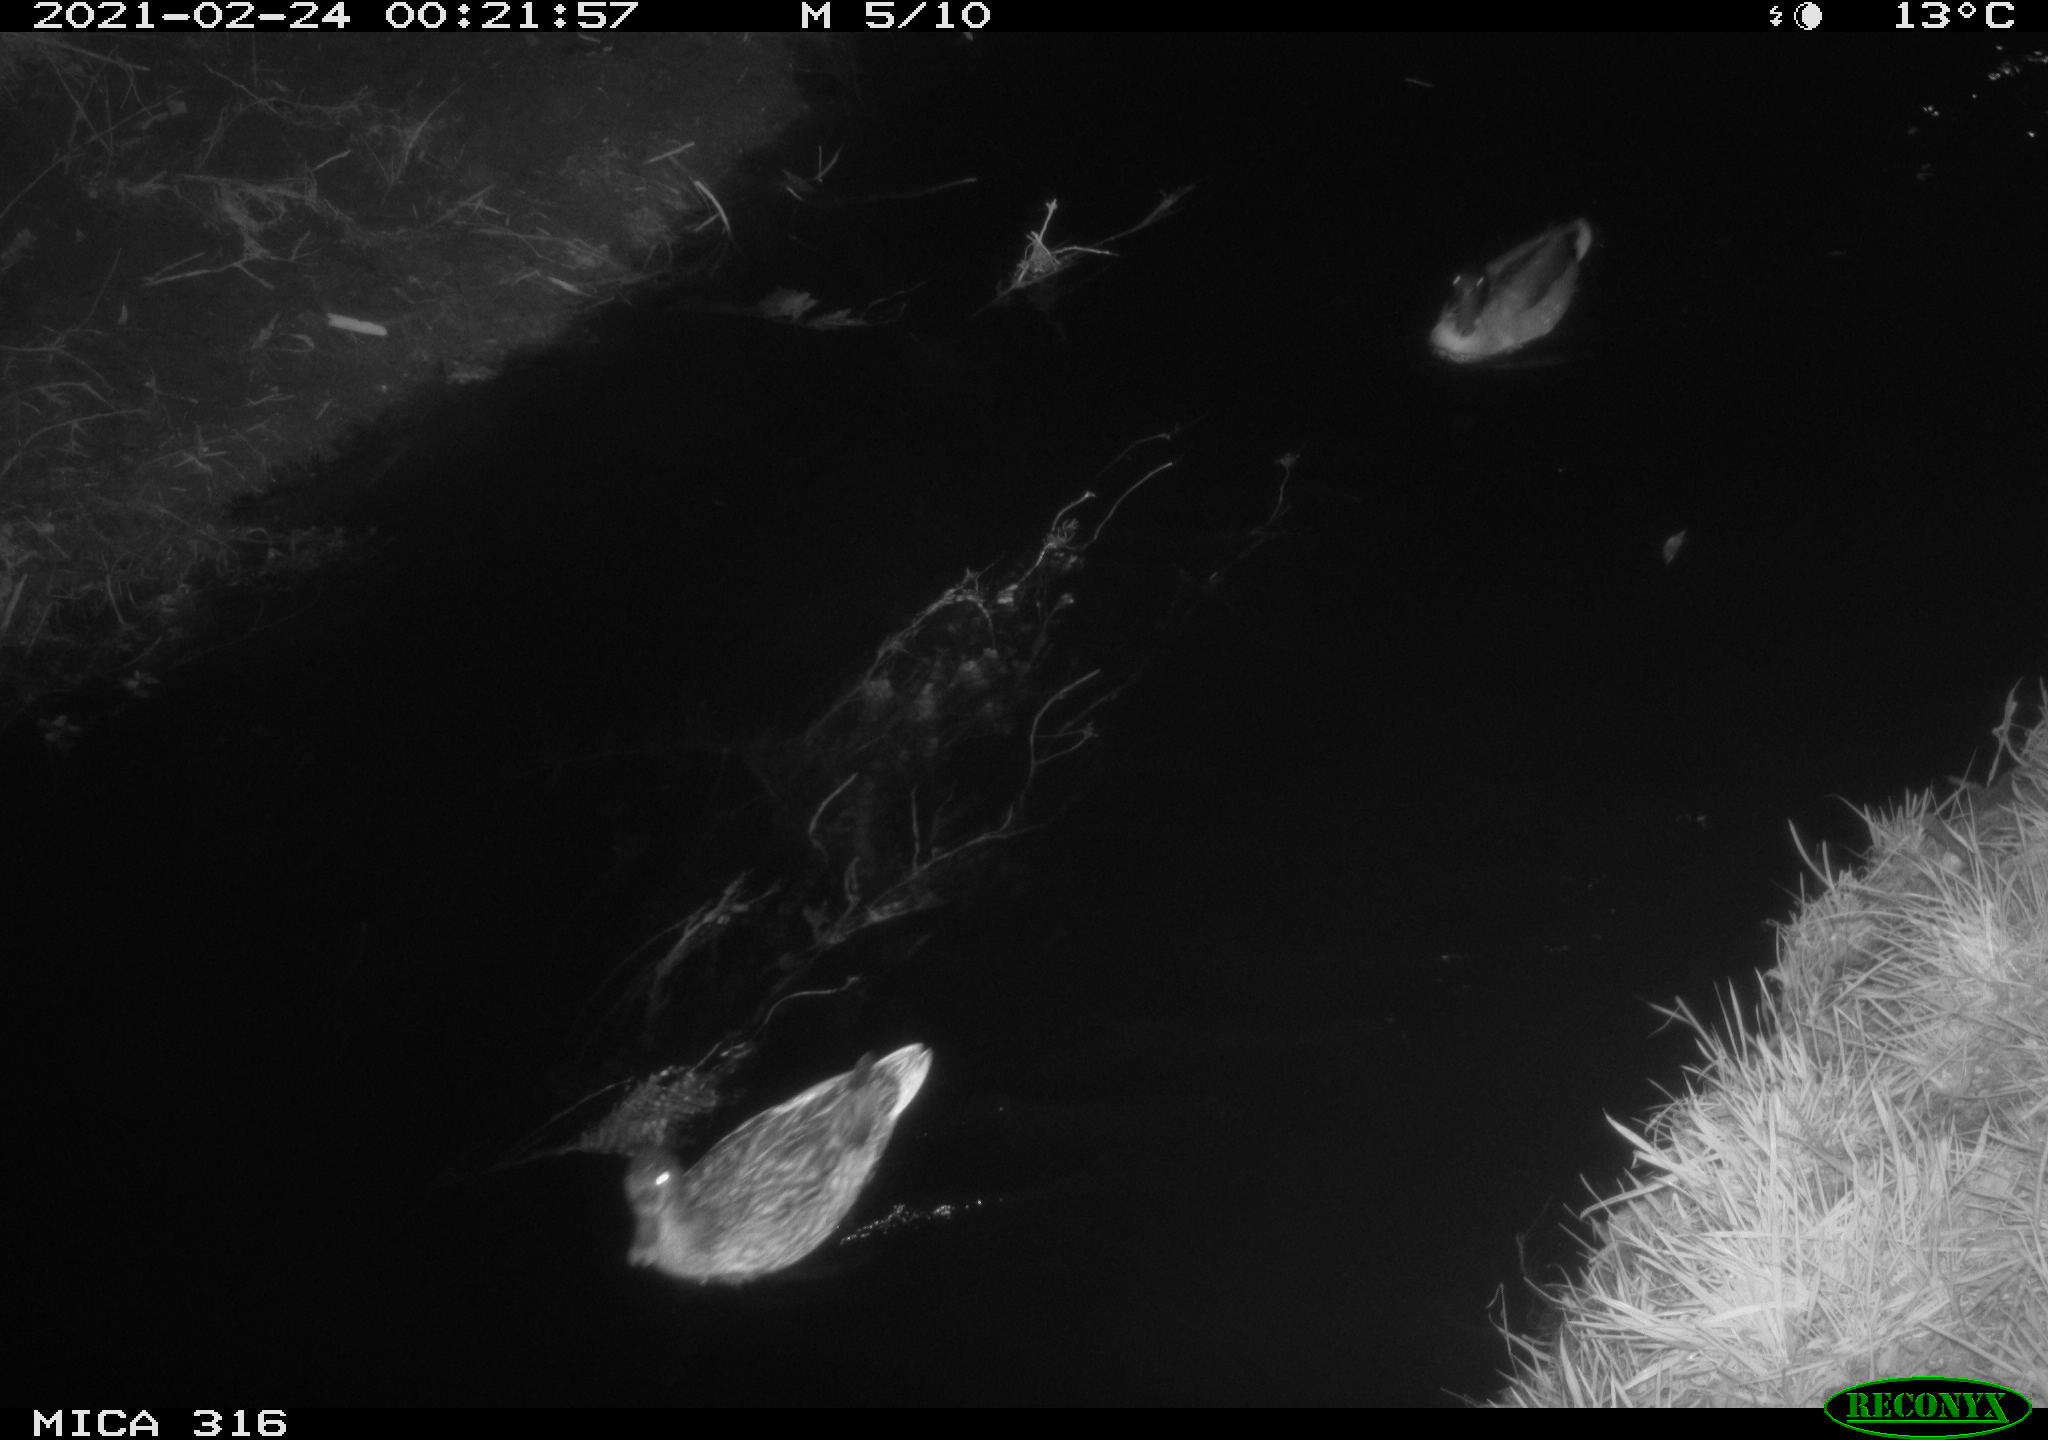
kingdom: Animalia
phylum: Chordata
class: Aves
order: Anseriformes
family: Anatidae
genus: Mareca
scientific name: Mareca strepera
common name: Gadwall
